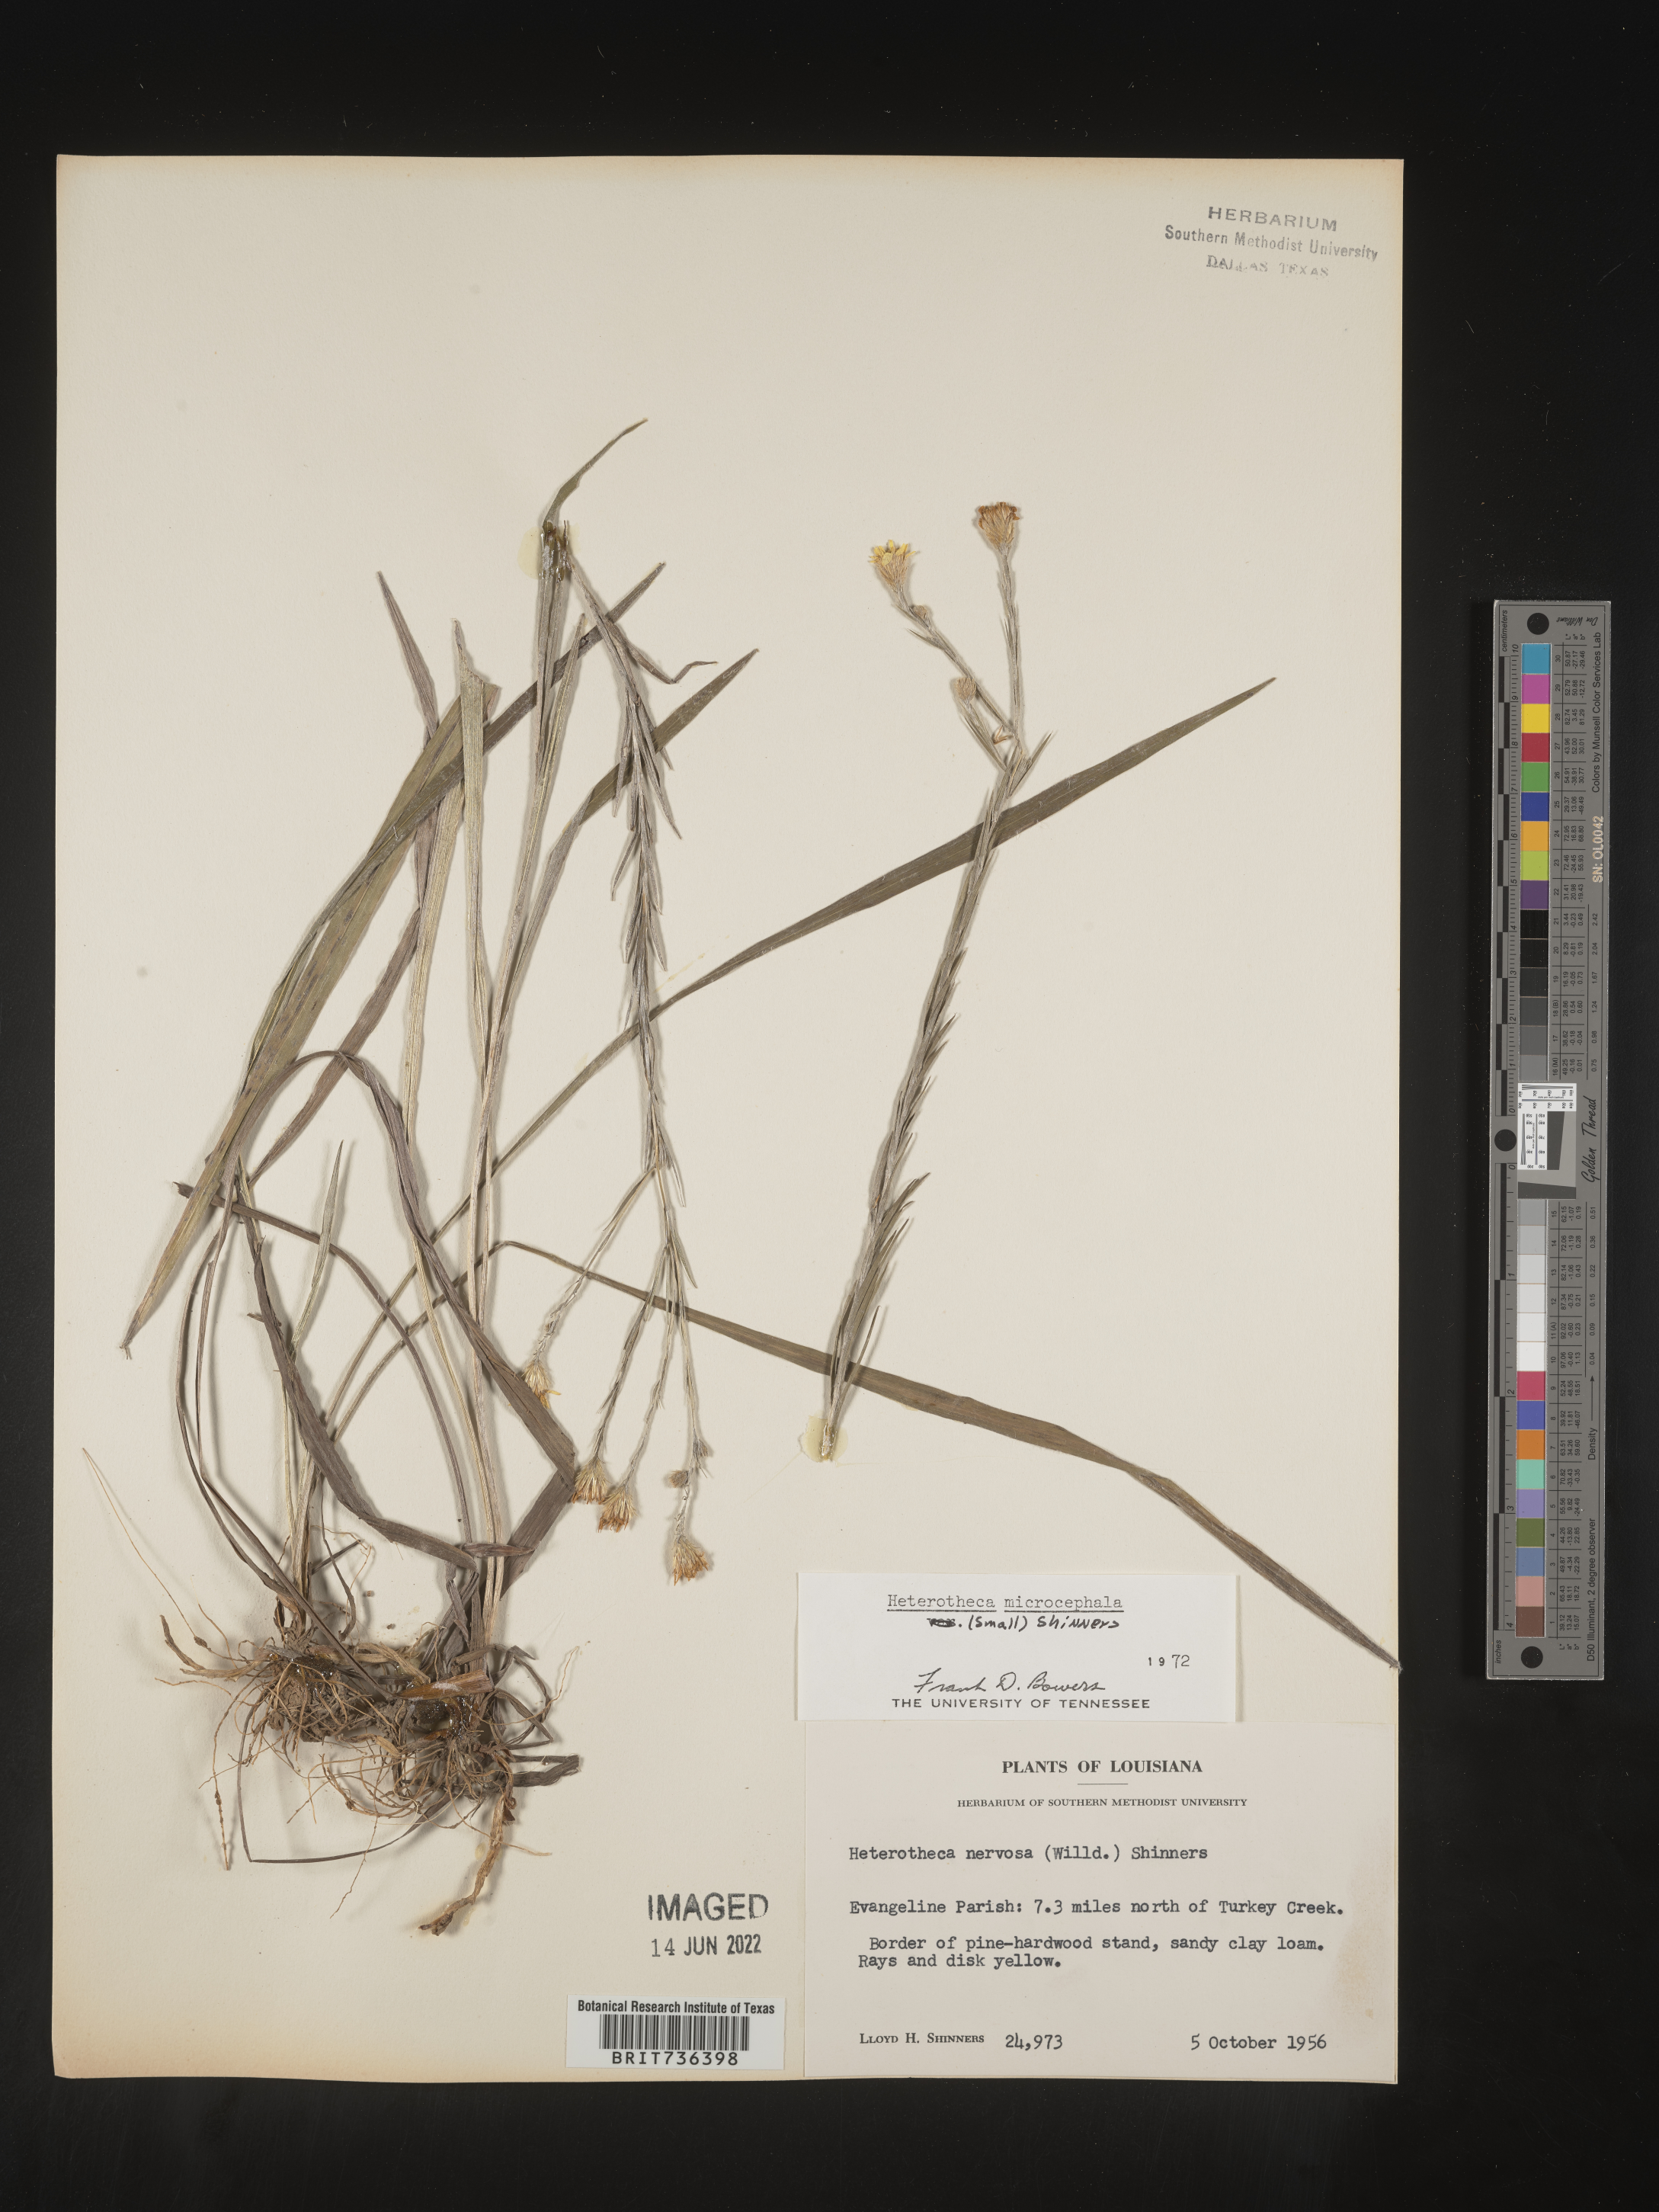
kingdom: Plantae
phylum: Tracheophyta
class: Magnoliopsida
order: Asterales
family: Asteraceae
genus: Pityopsis
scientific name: Pityopsis tenuifolia
